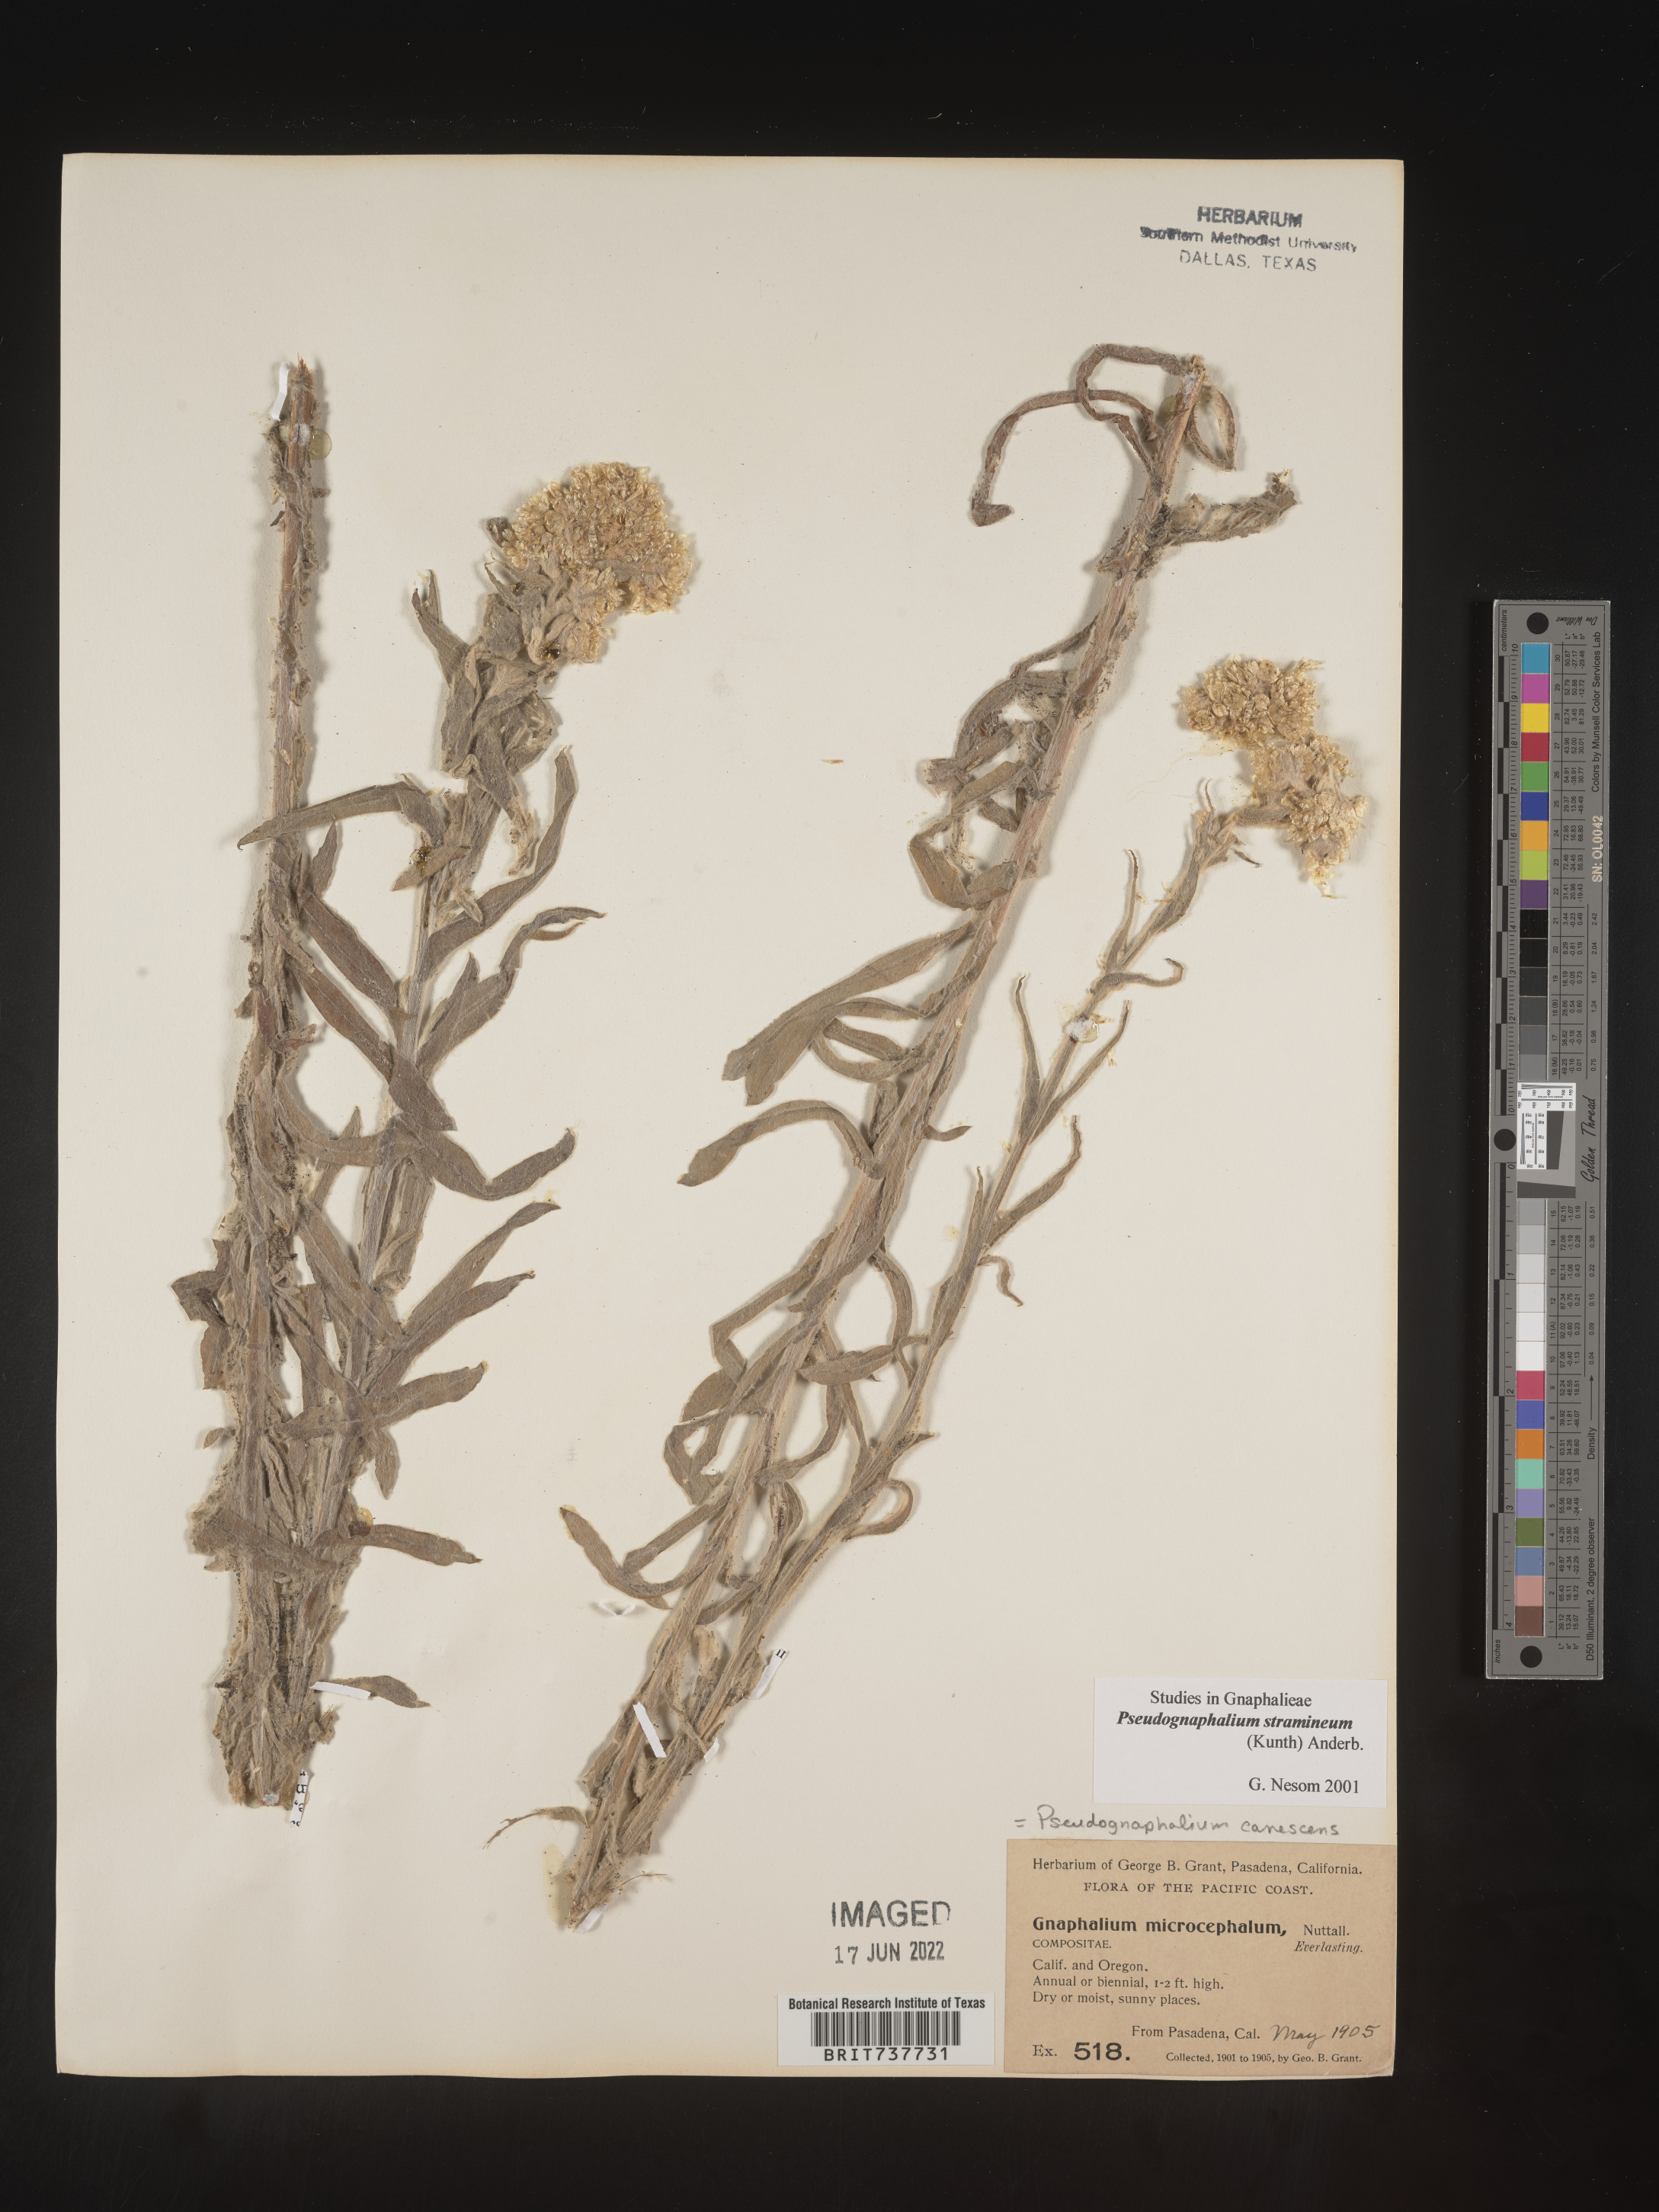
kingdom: Plantae
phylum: Tracheophyta
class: Magnoliopsida
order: Asterales
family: Asteraceae
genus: Pseudognaphalium
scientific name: Pseudognaphalium stramineum
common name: Cotton-batting-plant
